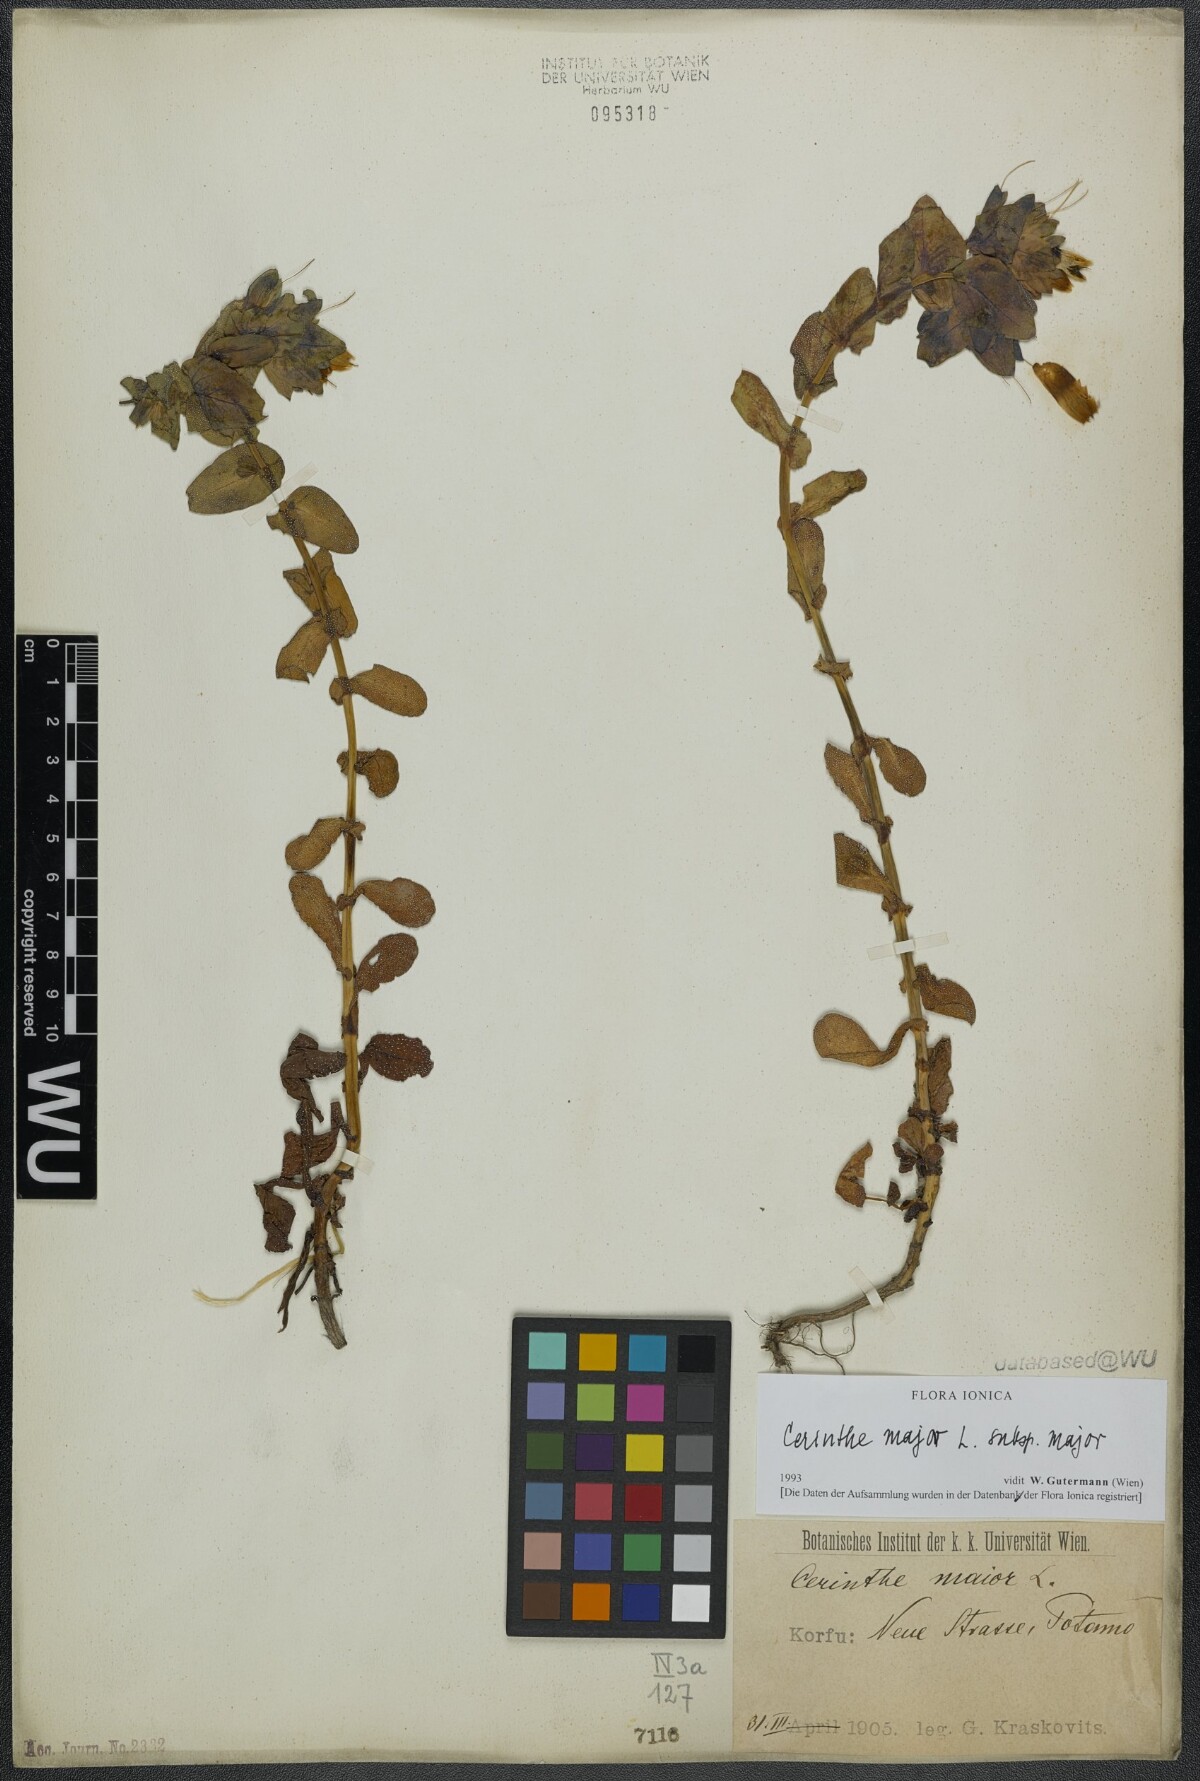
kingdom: Plantae
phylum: Tracheophyta
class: Magnoliopsida
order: Boraginales
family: Boraginaceae
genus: Cerinthe
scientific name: Cerinthe major
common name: Greater honeywort
